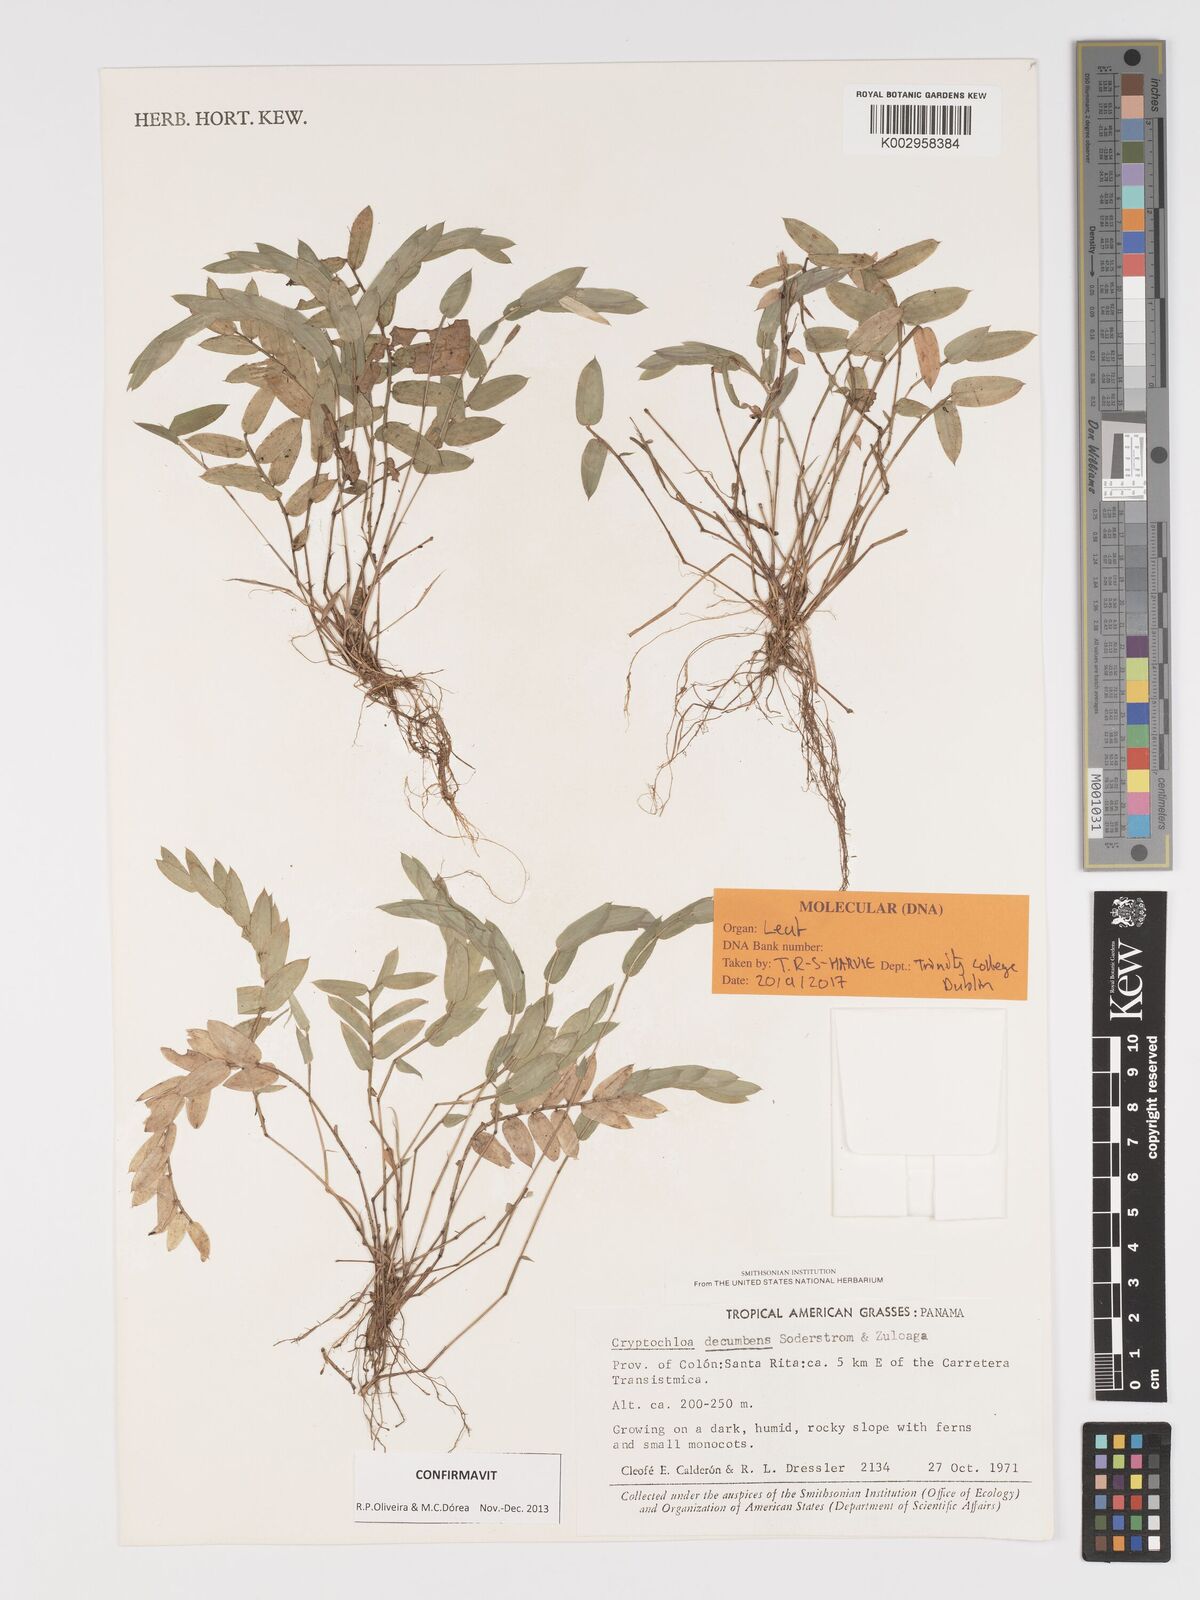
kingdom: Plantae
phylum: Tracheophyta
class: Liliopsida
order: Poales
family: Poaceae
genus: Cryptochloa
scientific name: Cryptochloa decumbens
